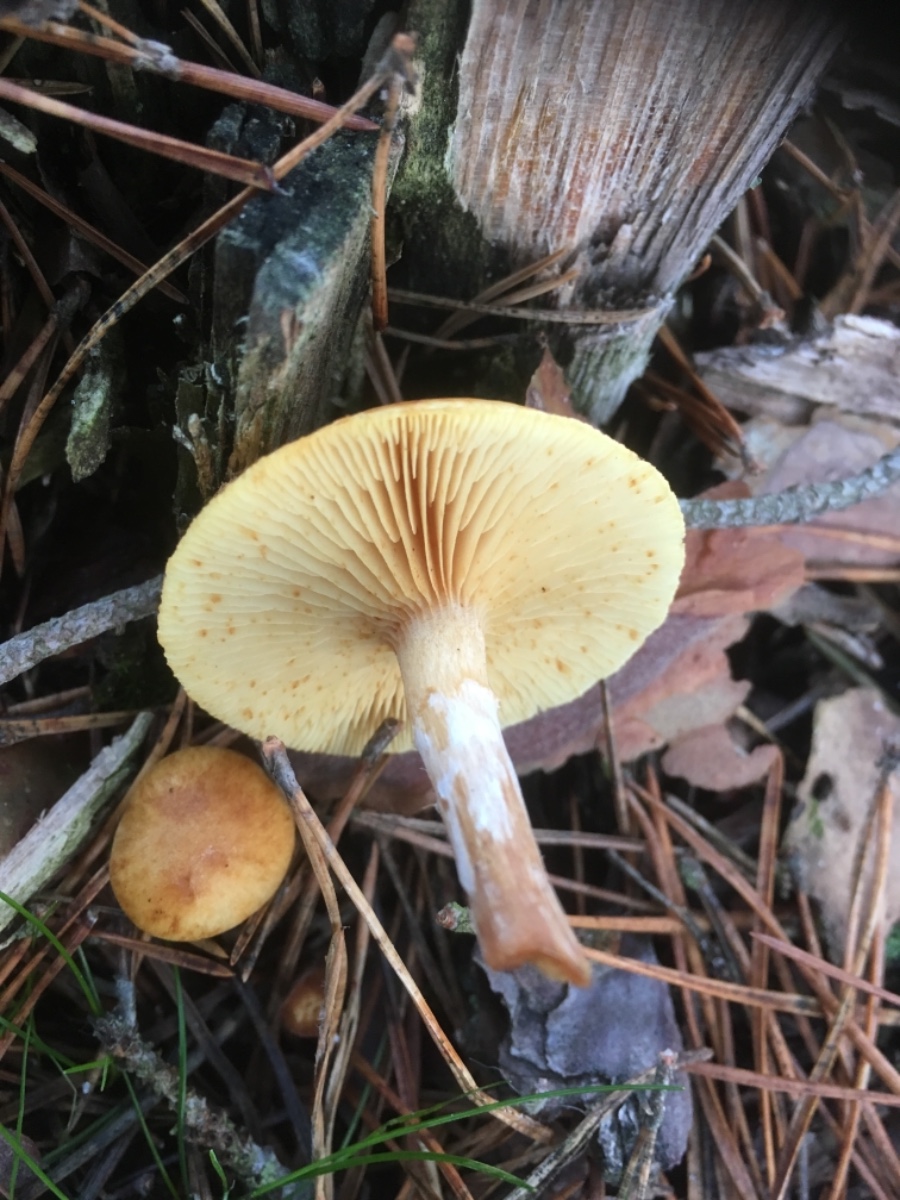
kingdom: Fungi
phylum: Basidiomycota
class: Agaricomycetes
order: Agaricales
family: Hymenogastraceae
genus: Gymnopilus
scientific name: Gymnopilus penetrans
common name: plettet flammehat
